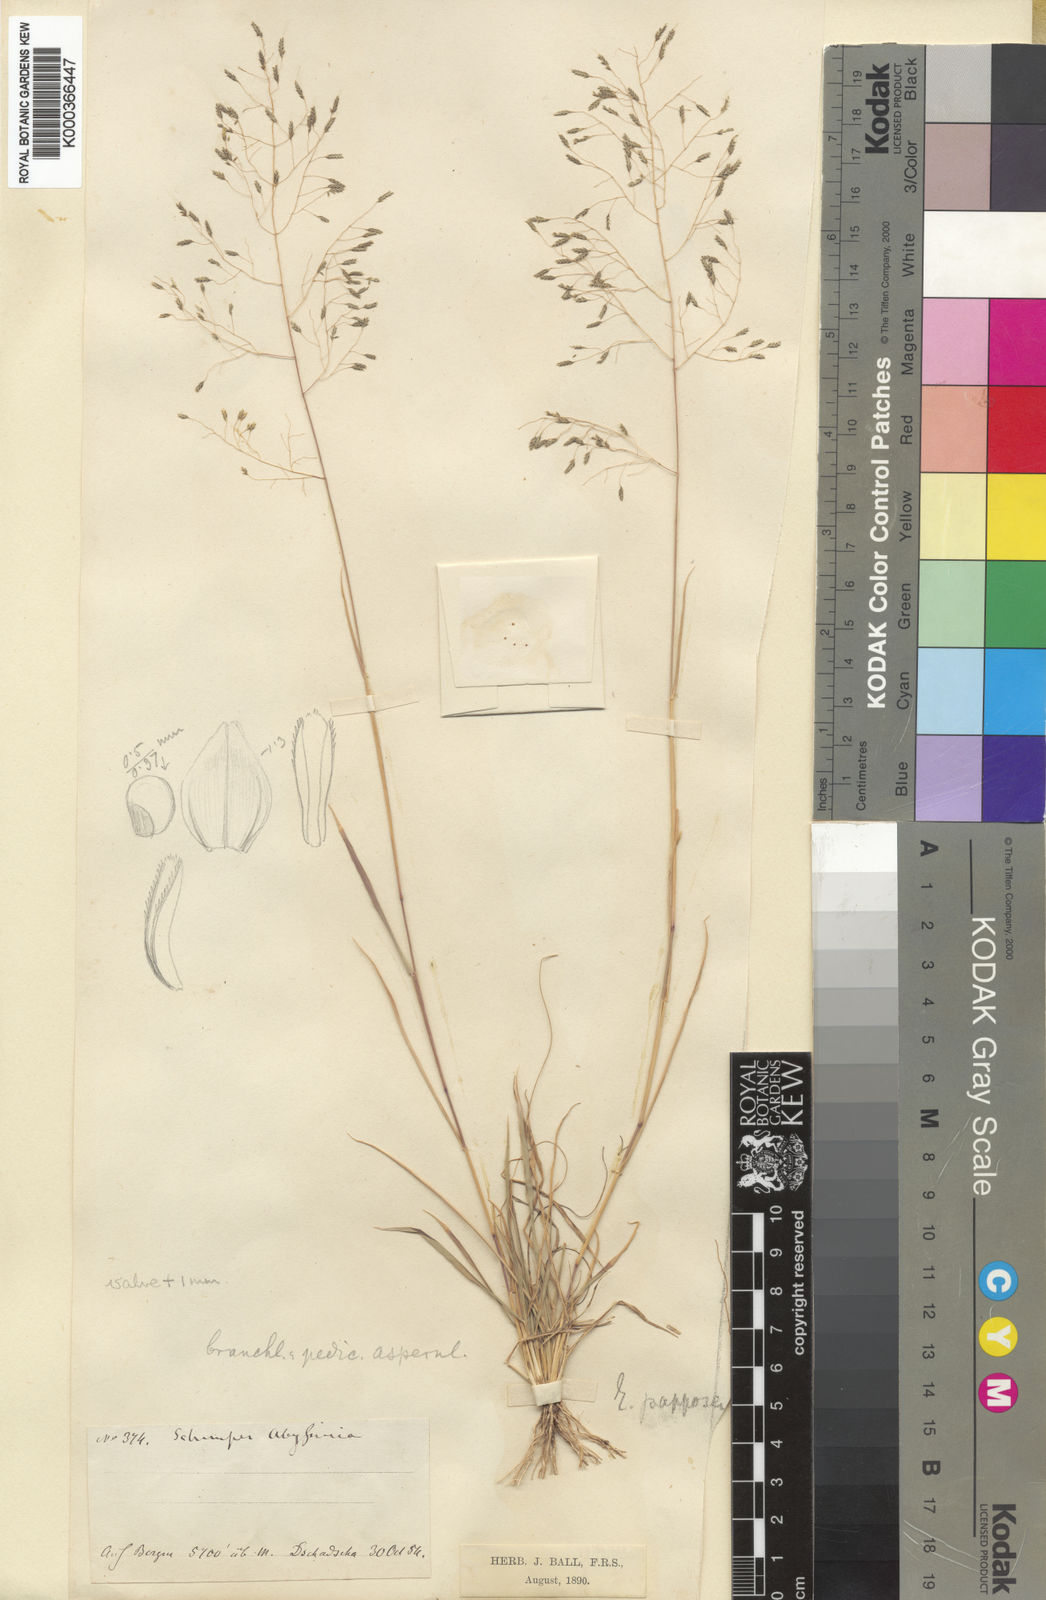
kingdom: Plantae
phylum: Tracheophyta
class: Liliopsida
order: Poales
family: Poaceae
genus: Eragrostis
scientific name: Eragrostis papposa
